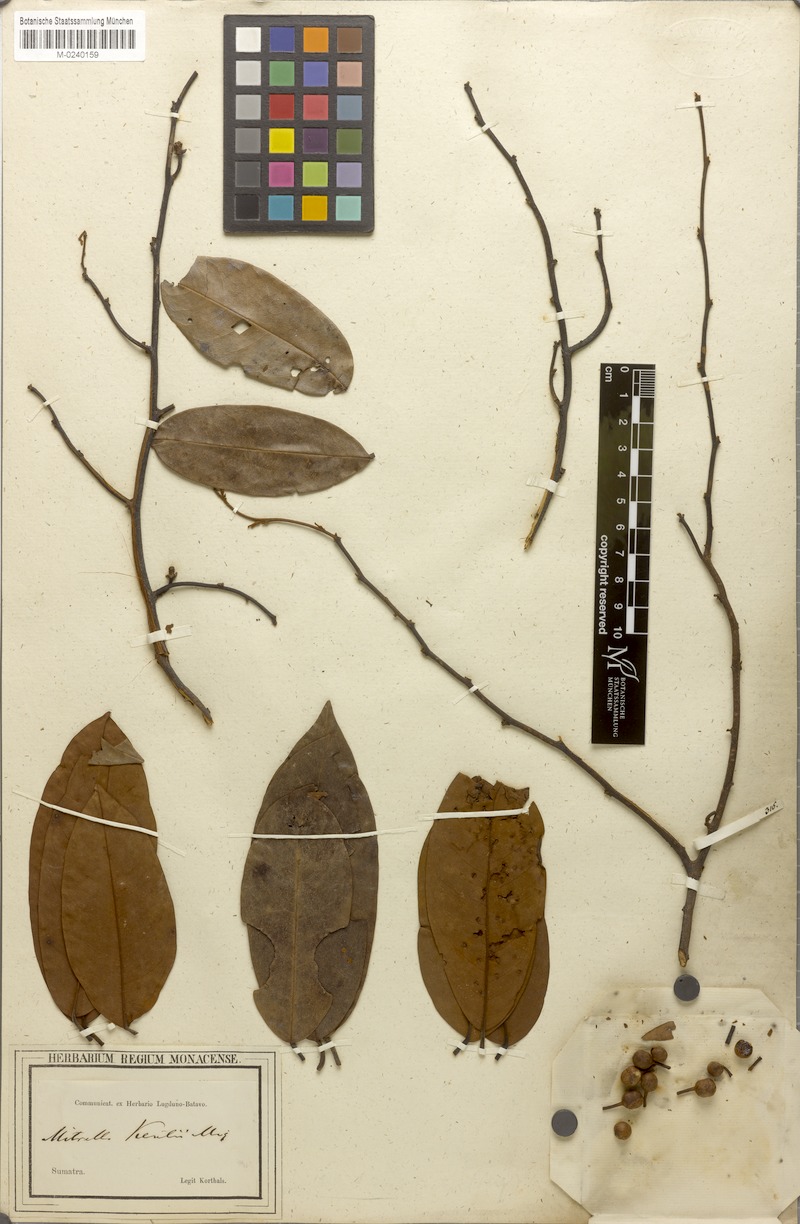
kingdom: Plantae
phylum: Tracheophyta
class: Magnoliopsida
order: Magnoliales
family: Annonaceae
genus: Mitrella
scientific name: Mitrella kentii
